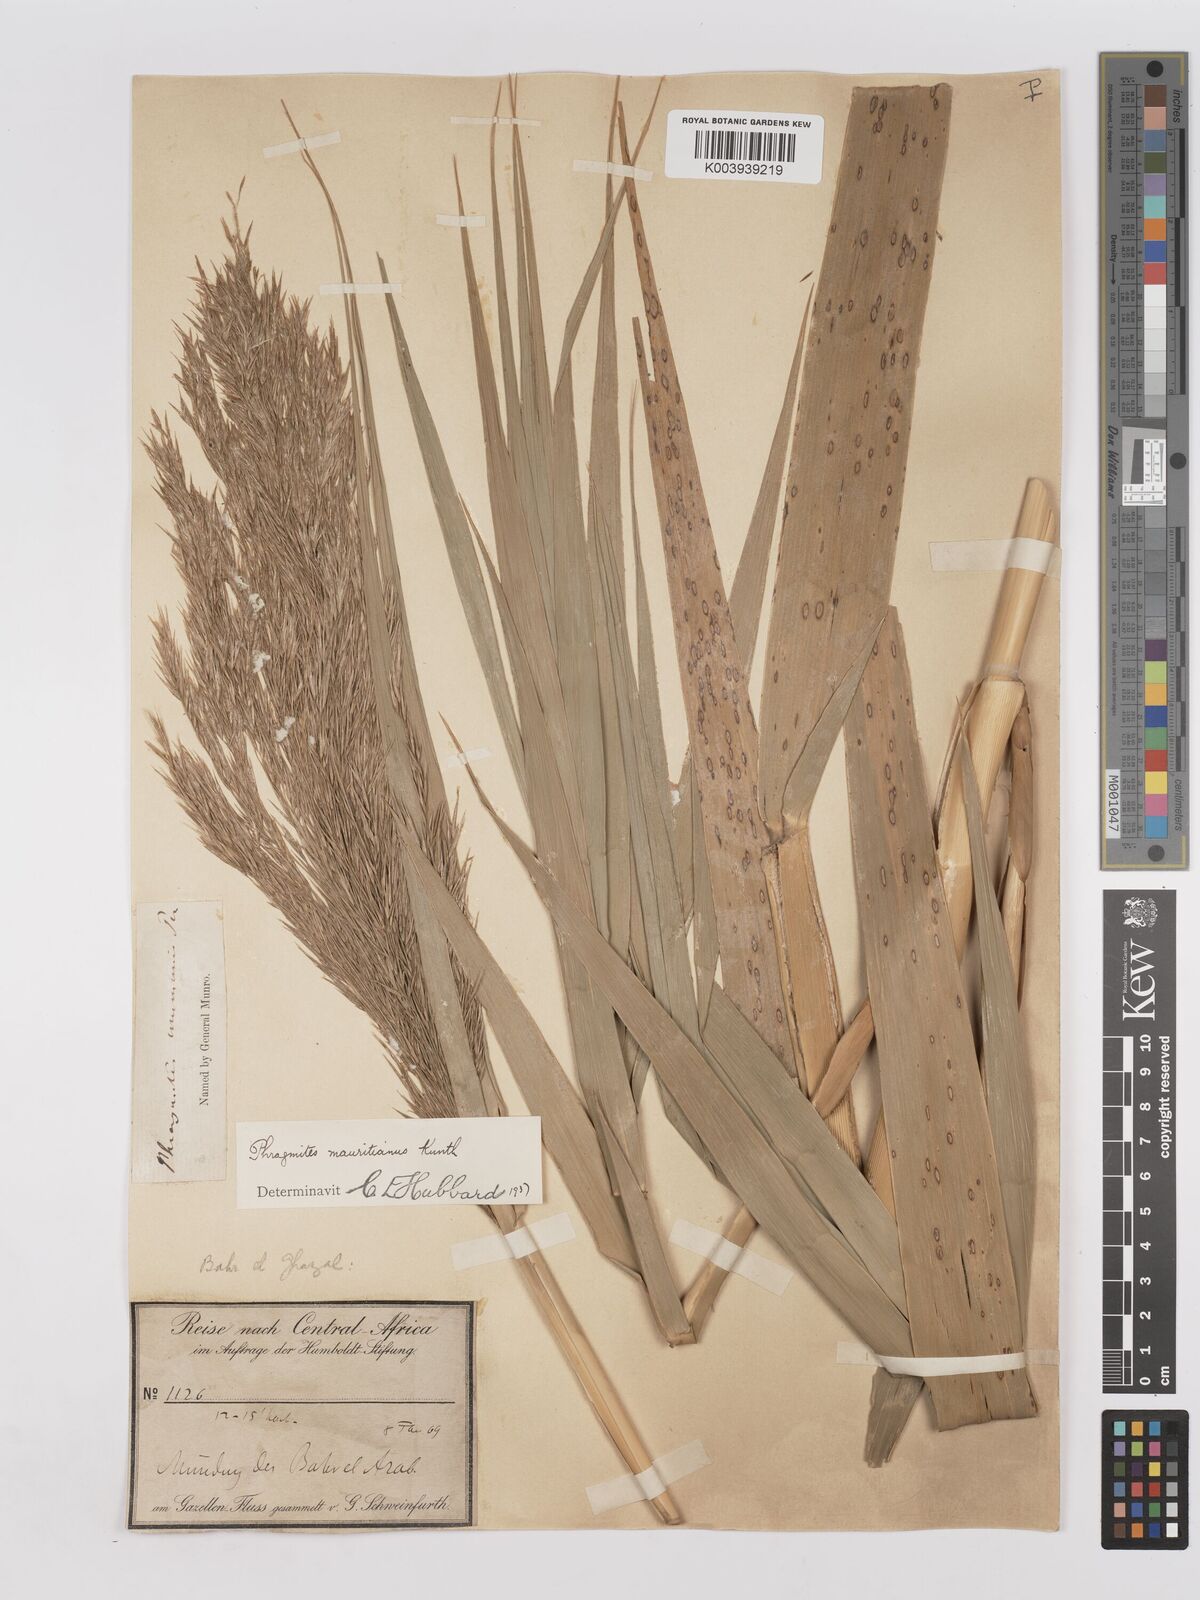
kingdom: Plantae
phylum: Tracheophyta
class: Liliopsida
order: Poales
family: Poaceae
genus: Phragmites
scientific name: Phragmites mauritianus
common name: Reed grass
